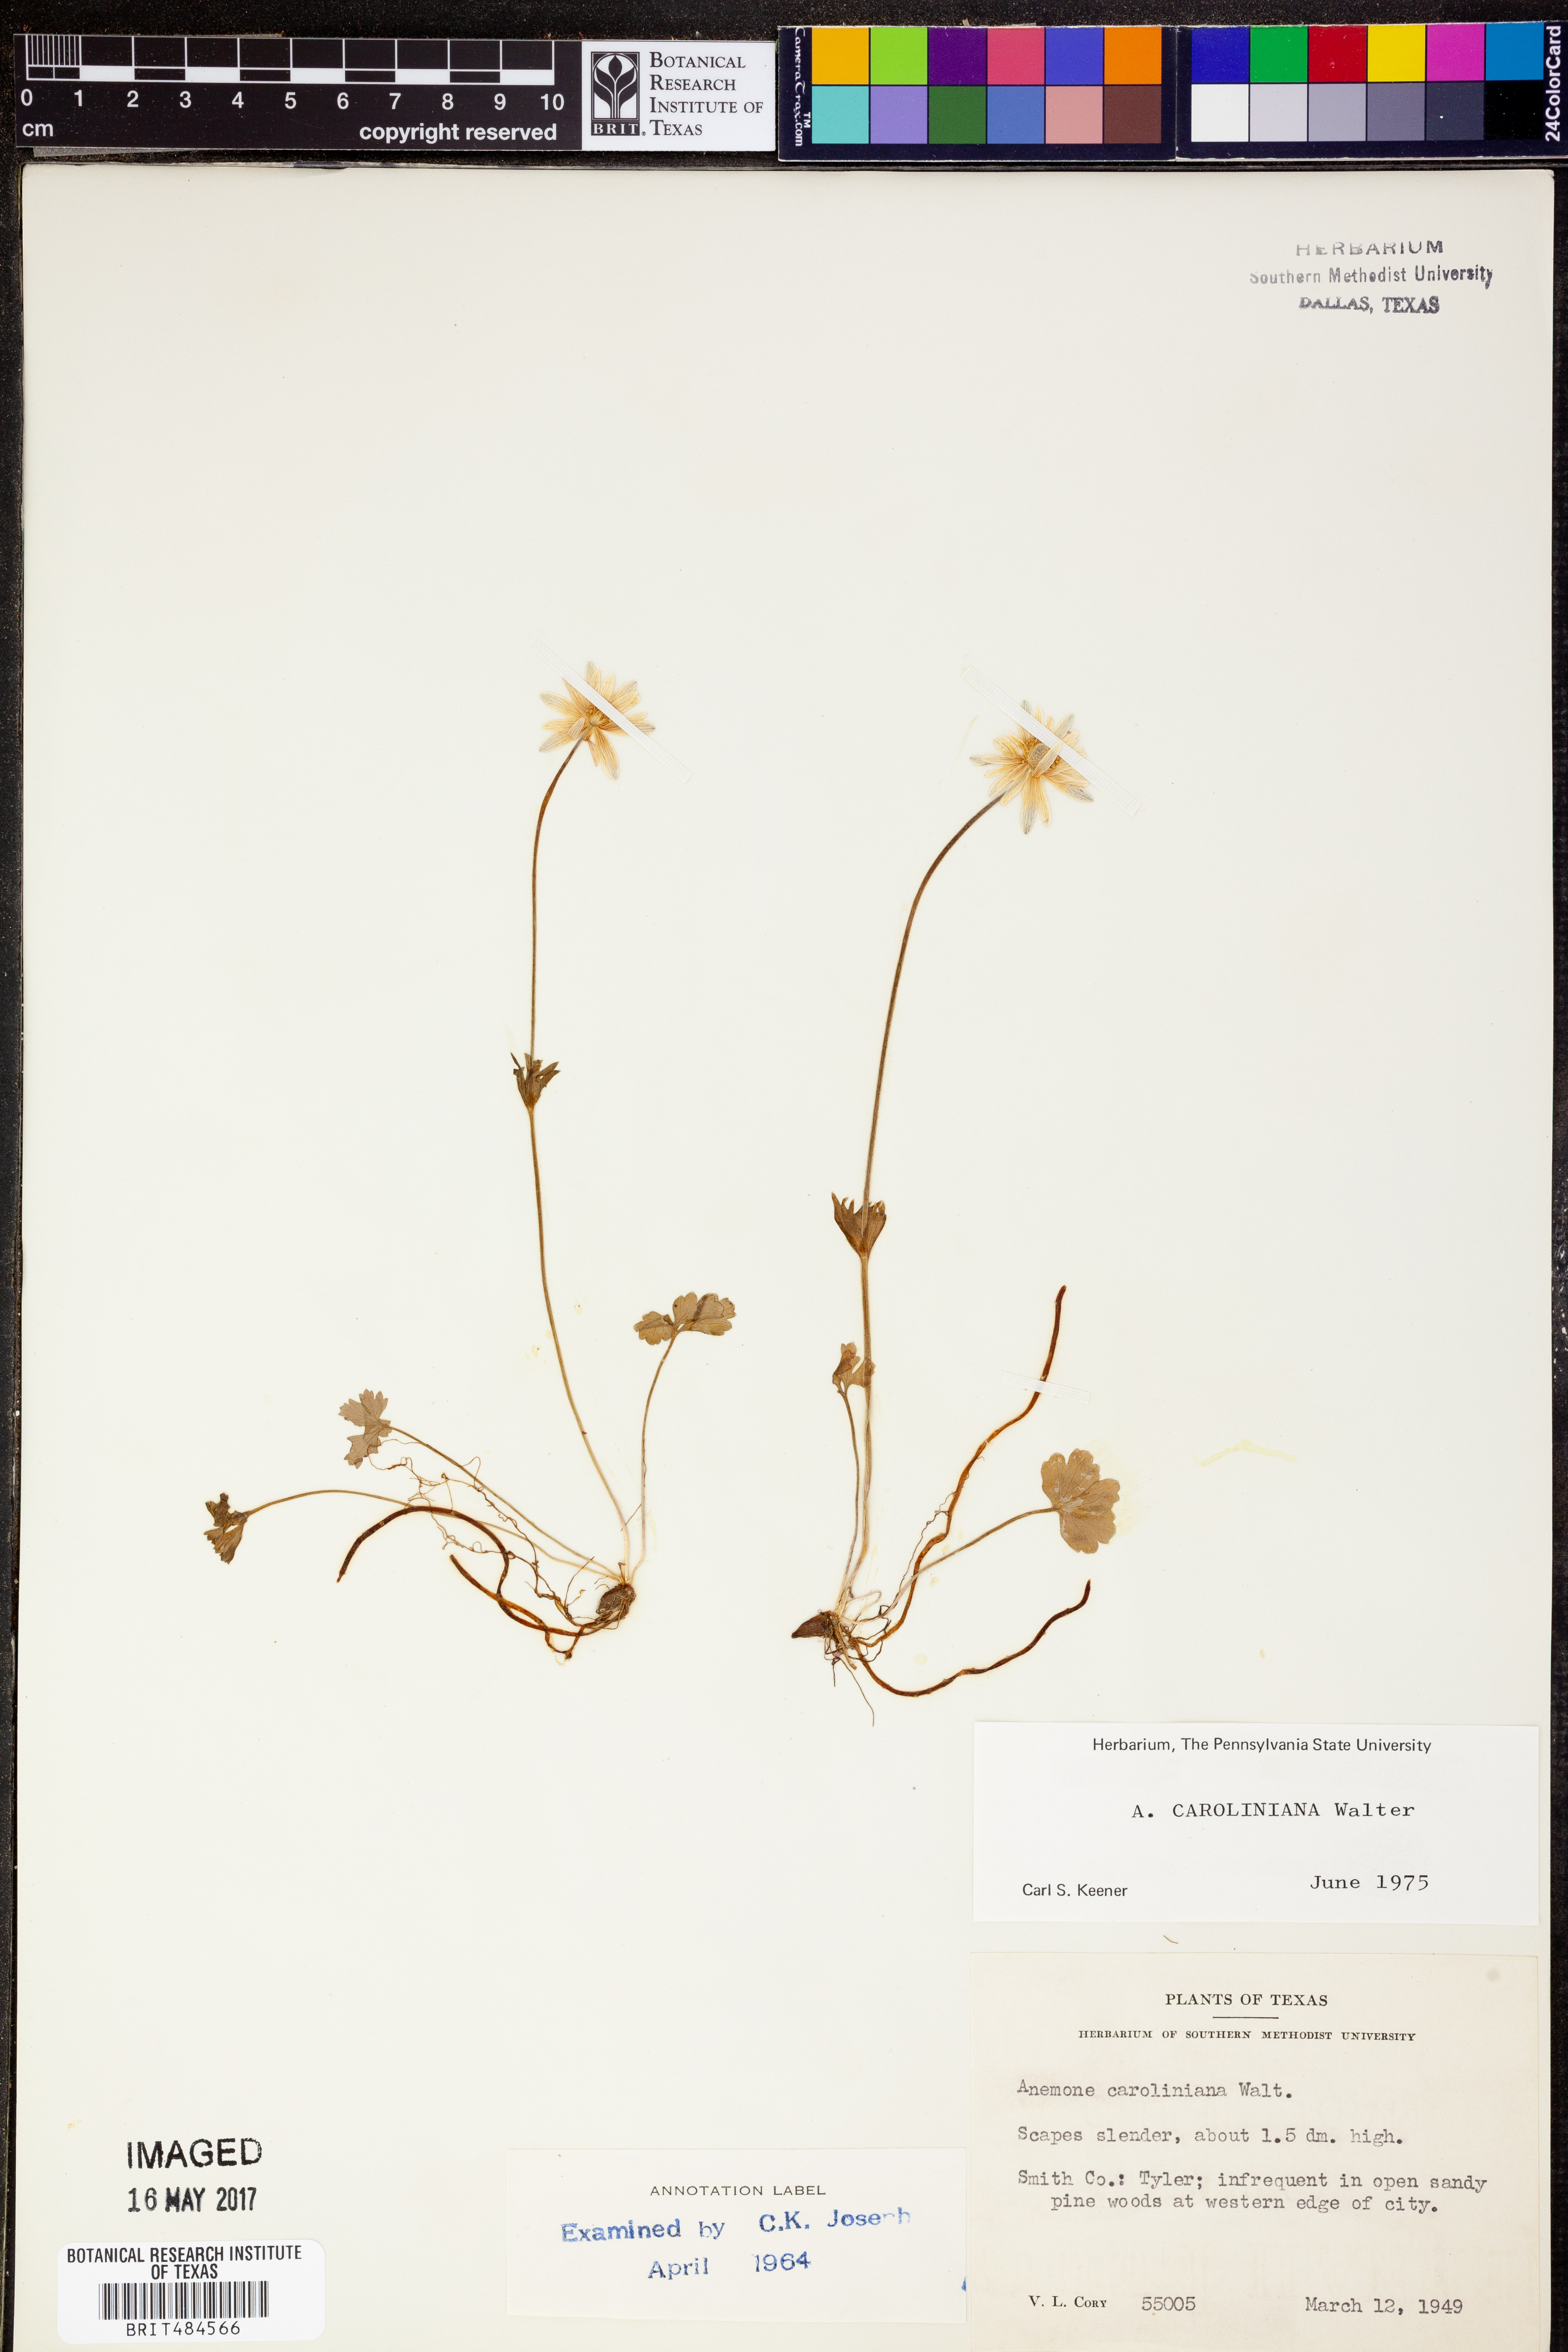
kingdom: Plantae
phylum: Tracheophyta
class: Magnoliopsida
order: Ranunculales
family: Ranunculaceae
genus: Anemone
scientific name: Anemone caroliniana
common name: Carolina anemone
